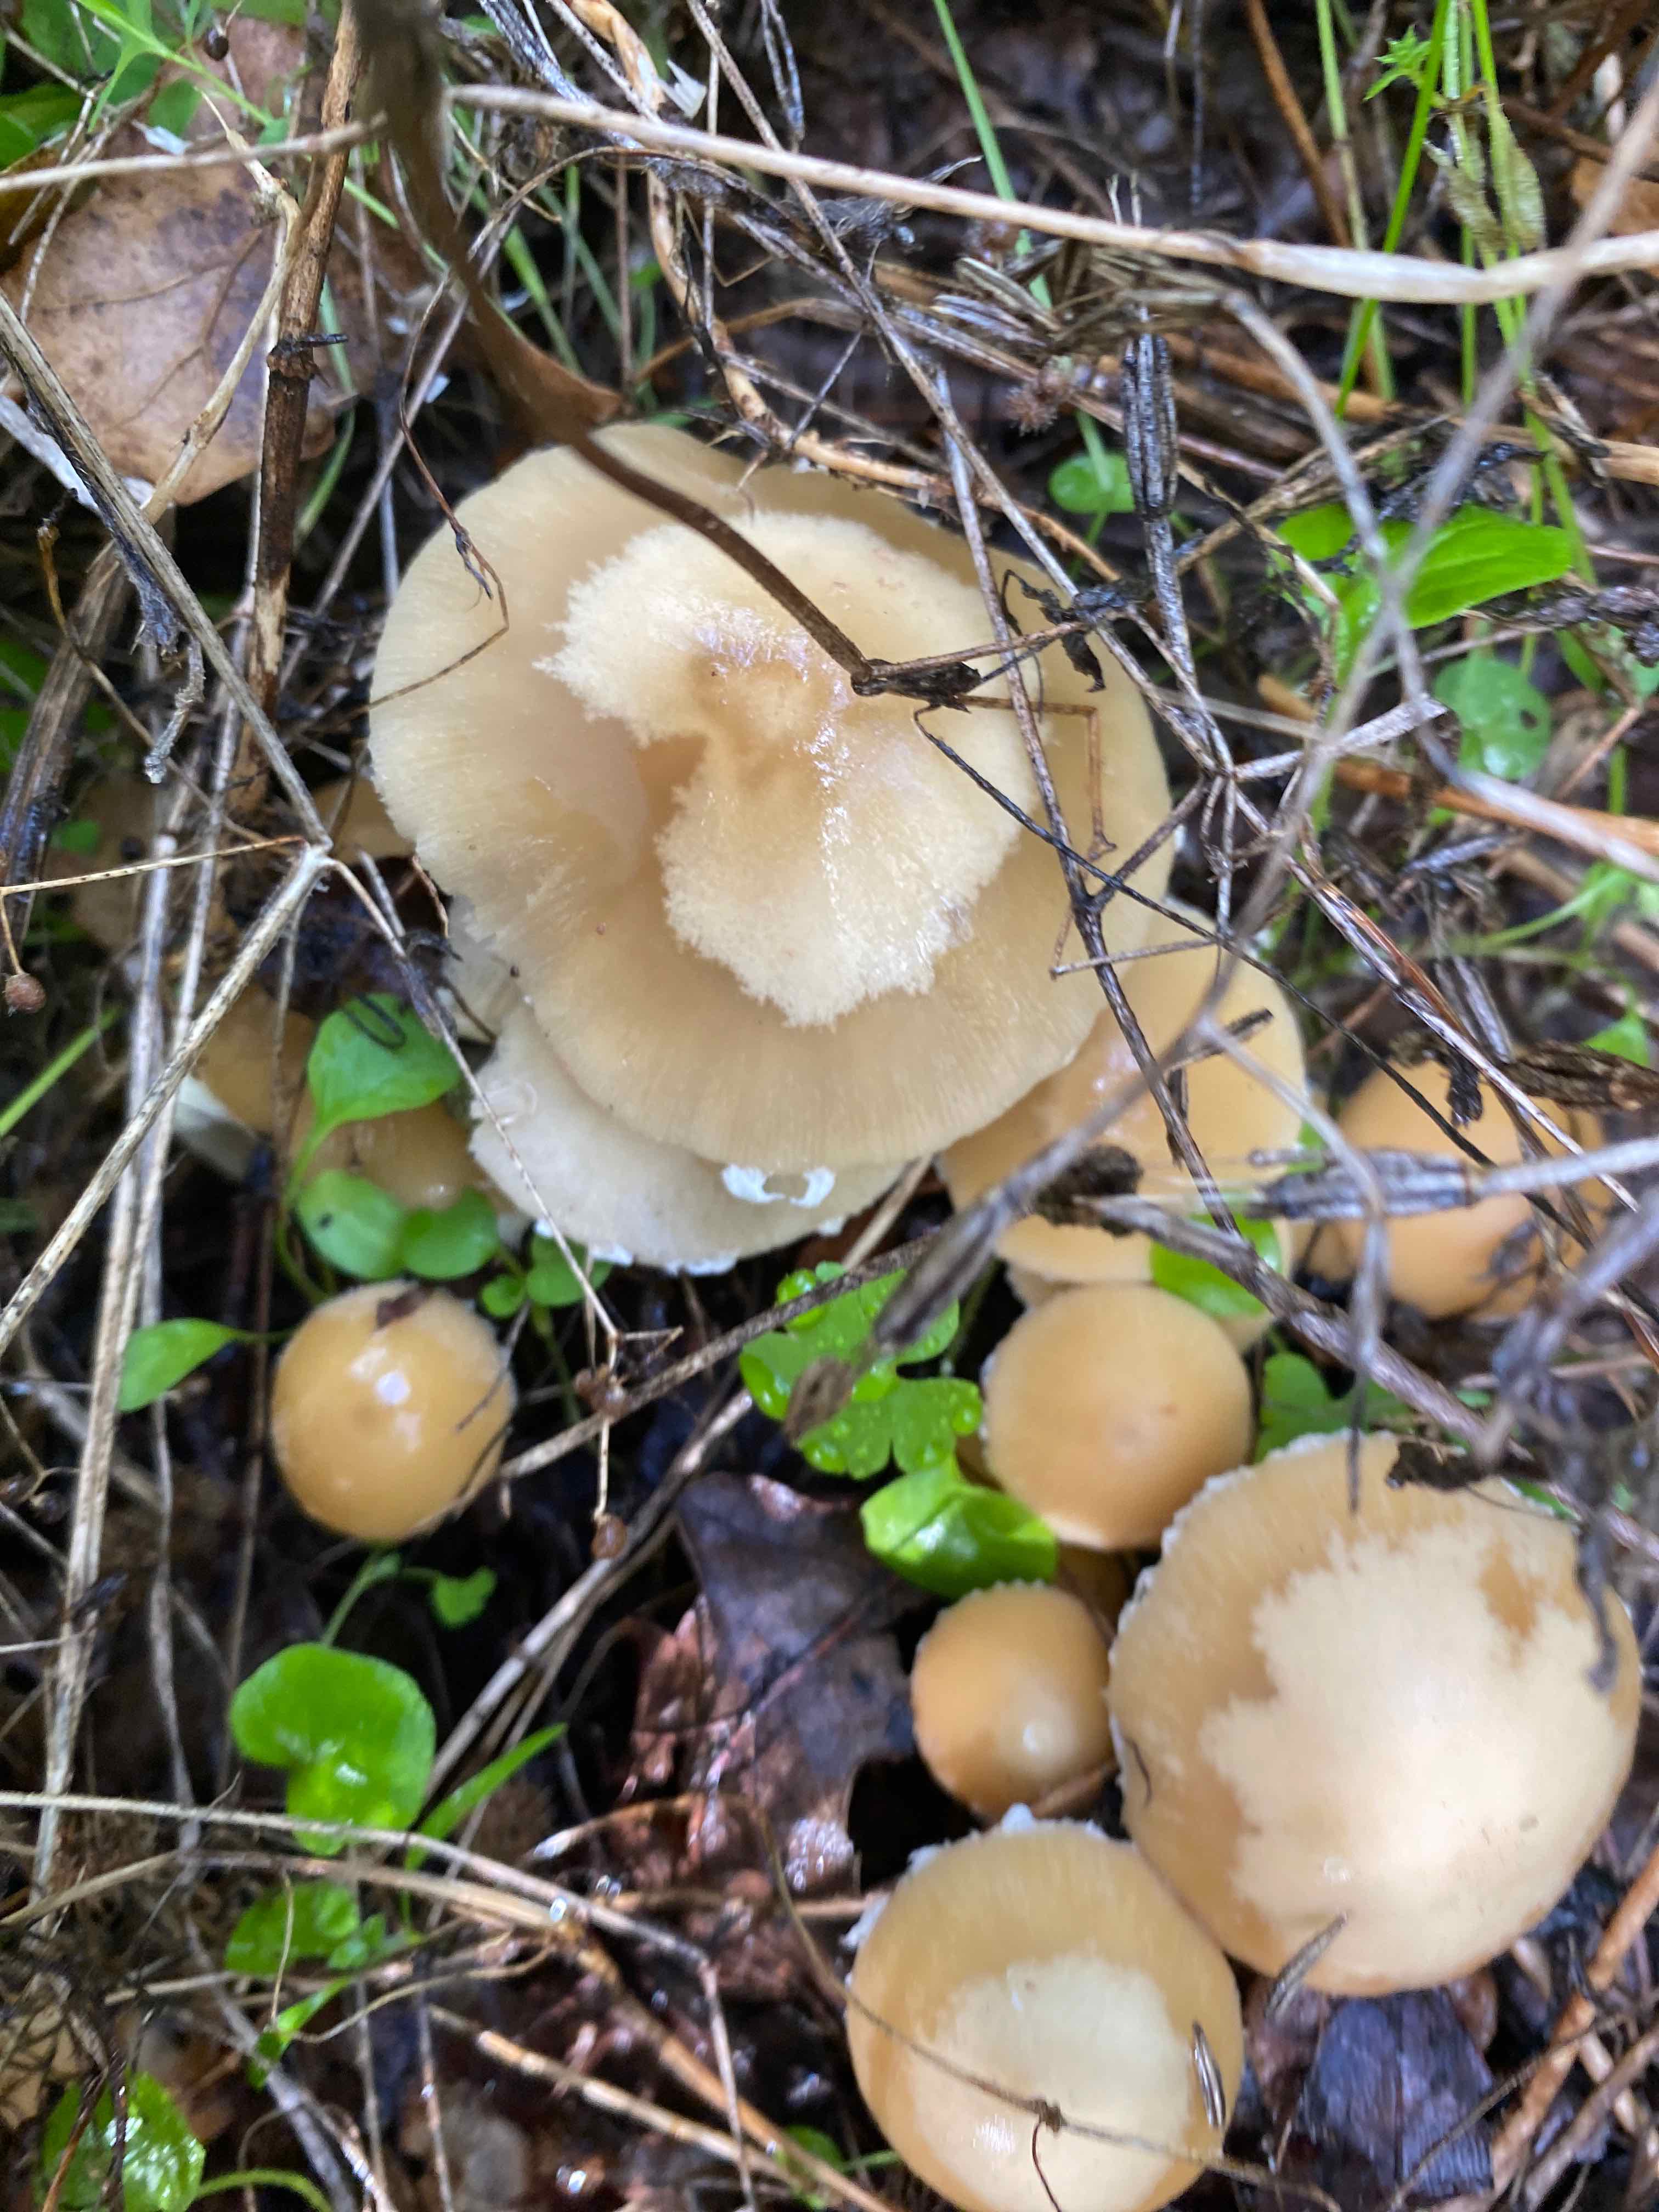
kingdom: Fungi
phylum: Basidiomycota
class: Agaricomycetes
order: Agaricales
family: Psathyrellaceae
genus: Candolleomyces
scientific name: Candolleomyces candolleanus
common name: Candolles mørkhat
